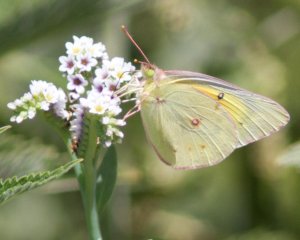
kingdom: Animalia
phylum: Arthropoda
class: Insecta
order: Lepidoptera
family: Pieridae
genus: Colias
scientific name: Colias eurytheme
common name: Orange Sulphur
